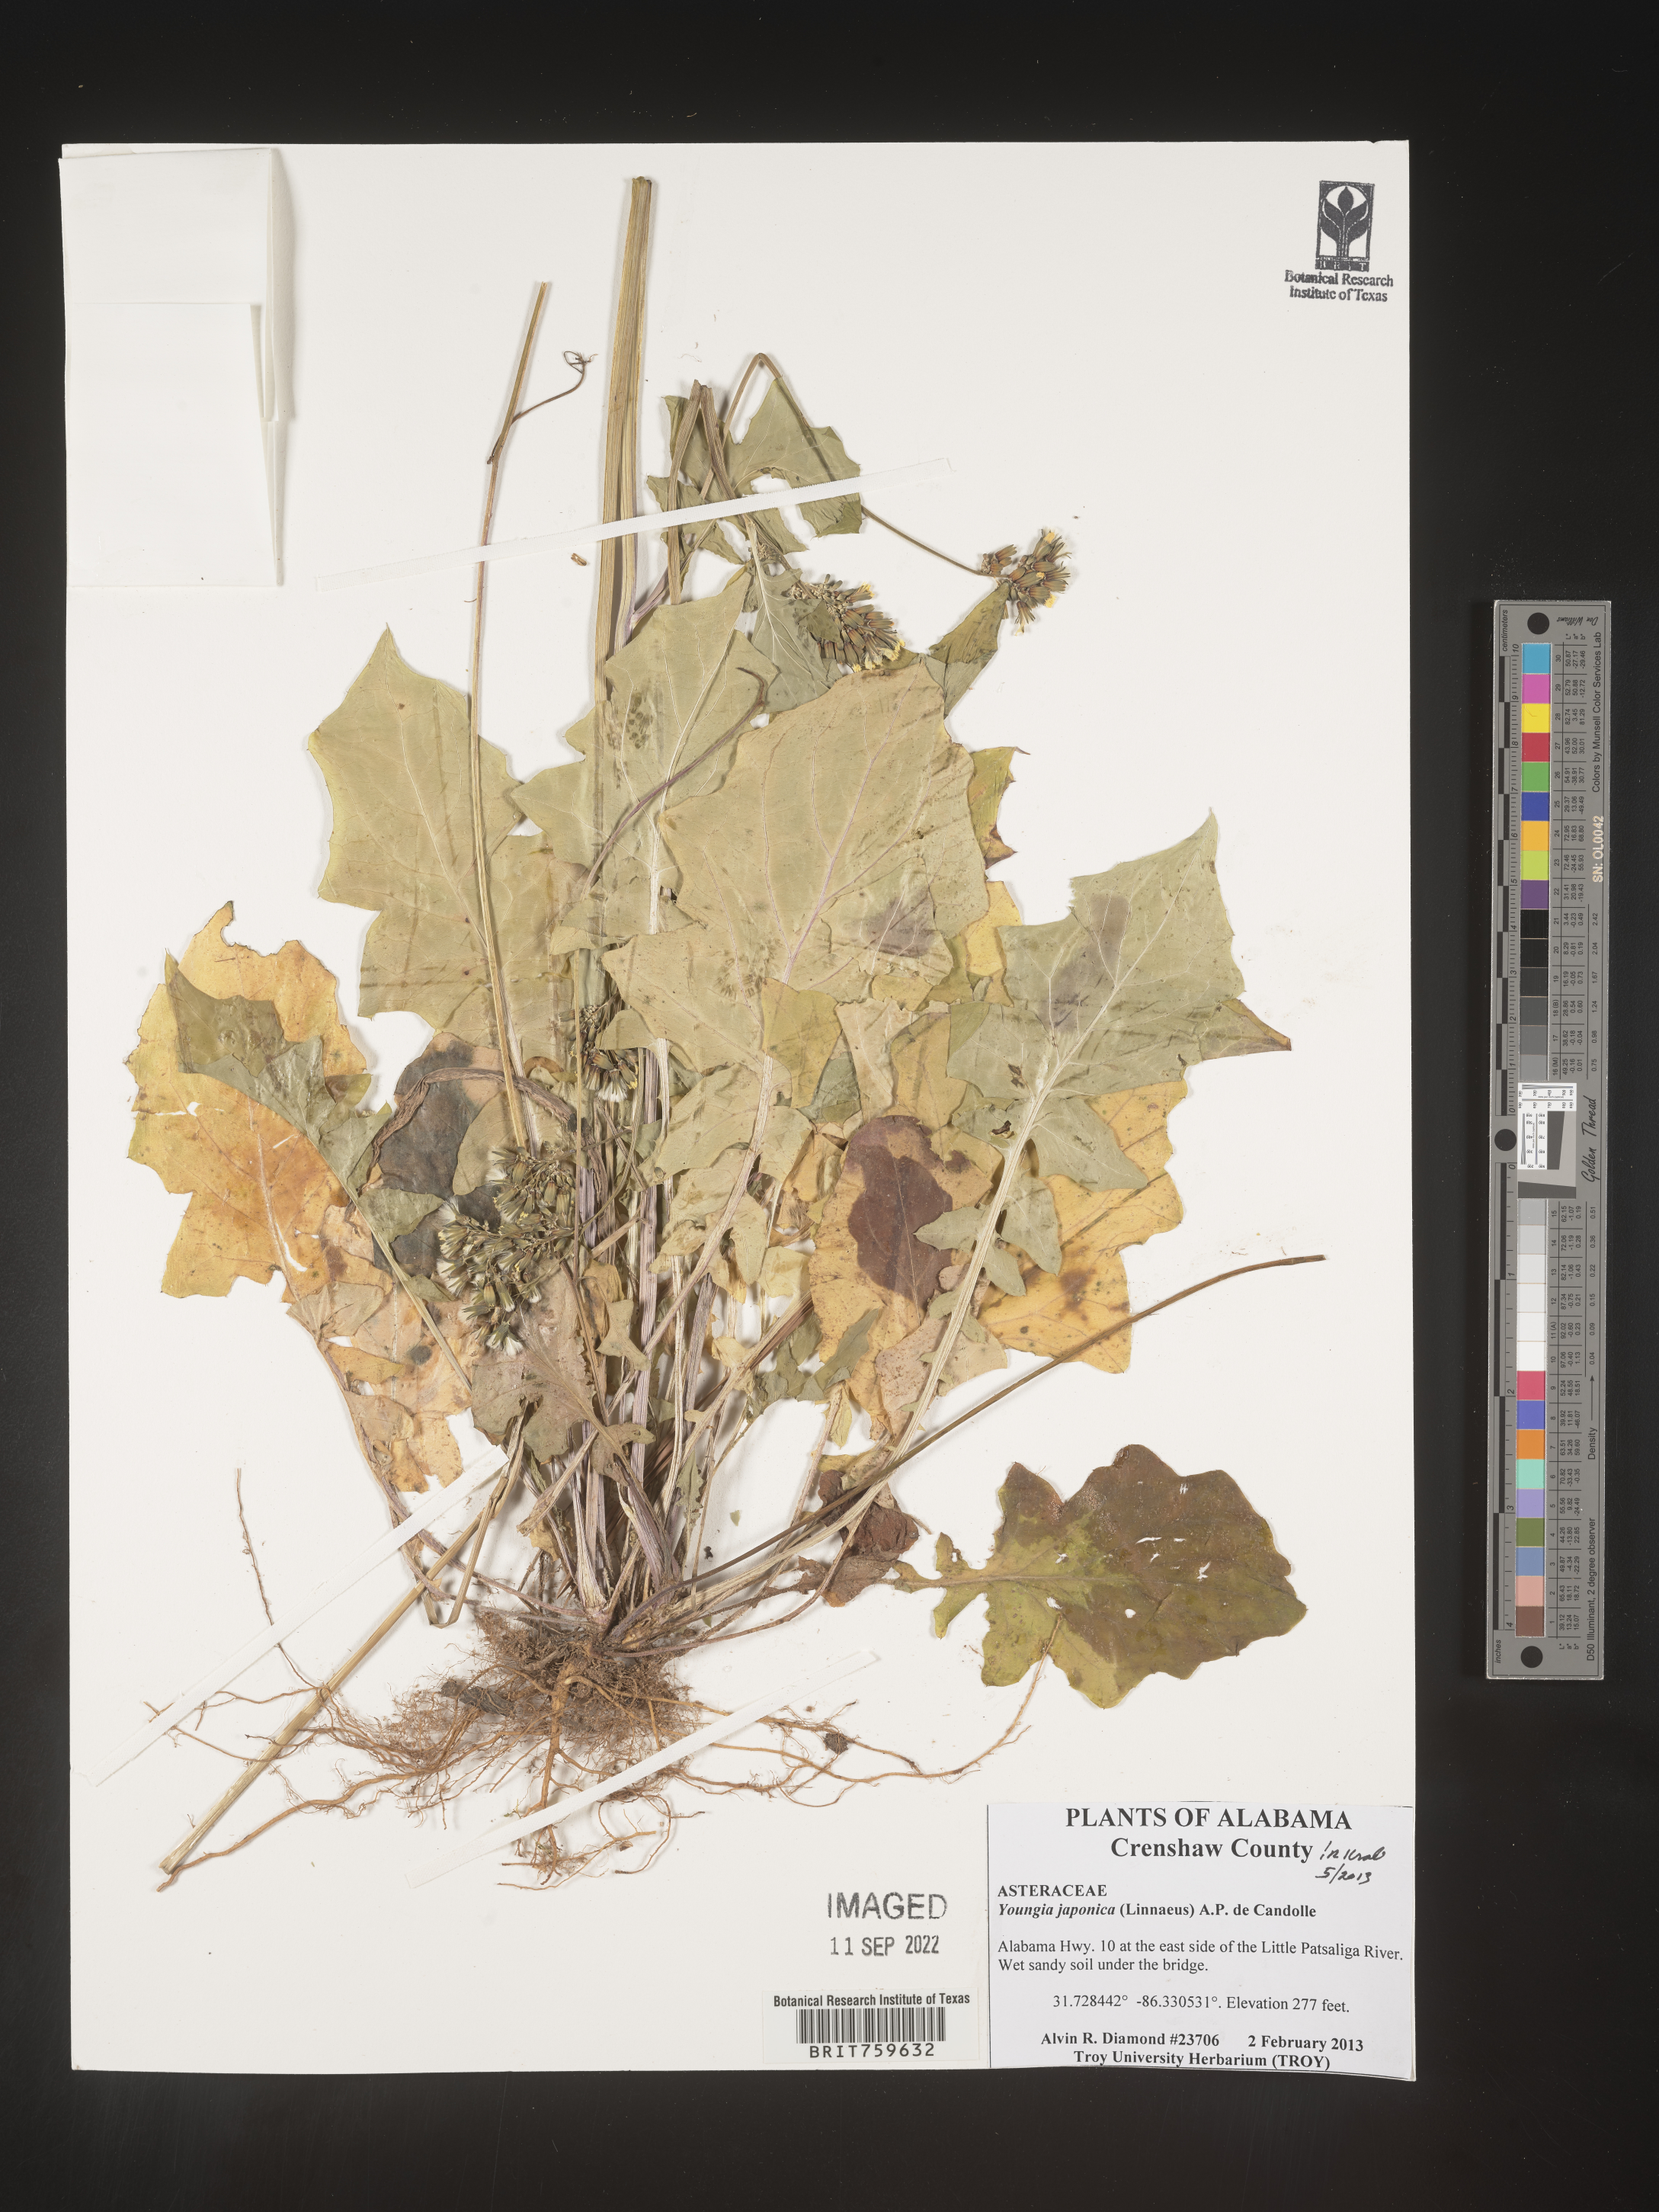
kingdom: Plantae
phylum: Tracheophyta
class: Magnoliopsida
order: Asterales
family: Asteraceae
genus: Youngia
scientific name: Youngia japonica
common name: Oriental false hawksbeard
